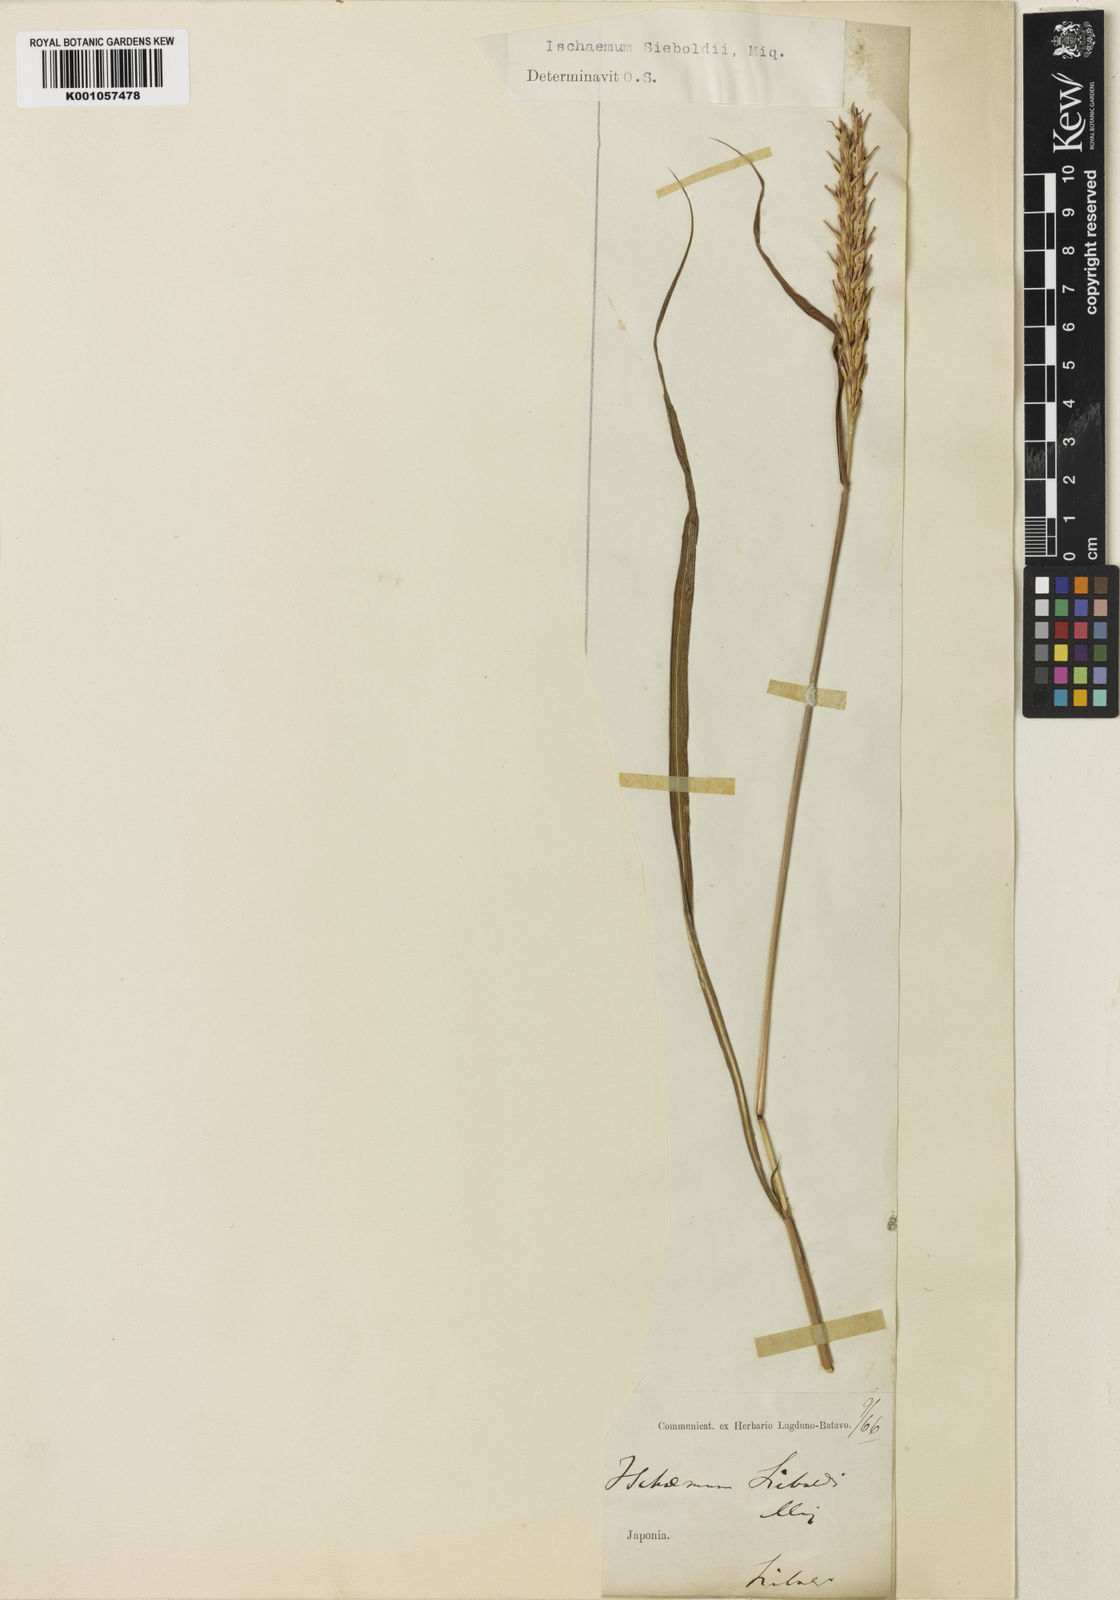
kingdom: Plantae
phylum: Tracheophyta
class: Liliopsida
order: Poales
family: Poaceae
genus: Ischaemum
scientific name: Ischaemum aristatum
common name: Toco grass
